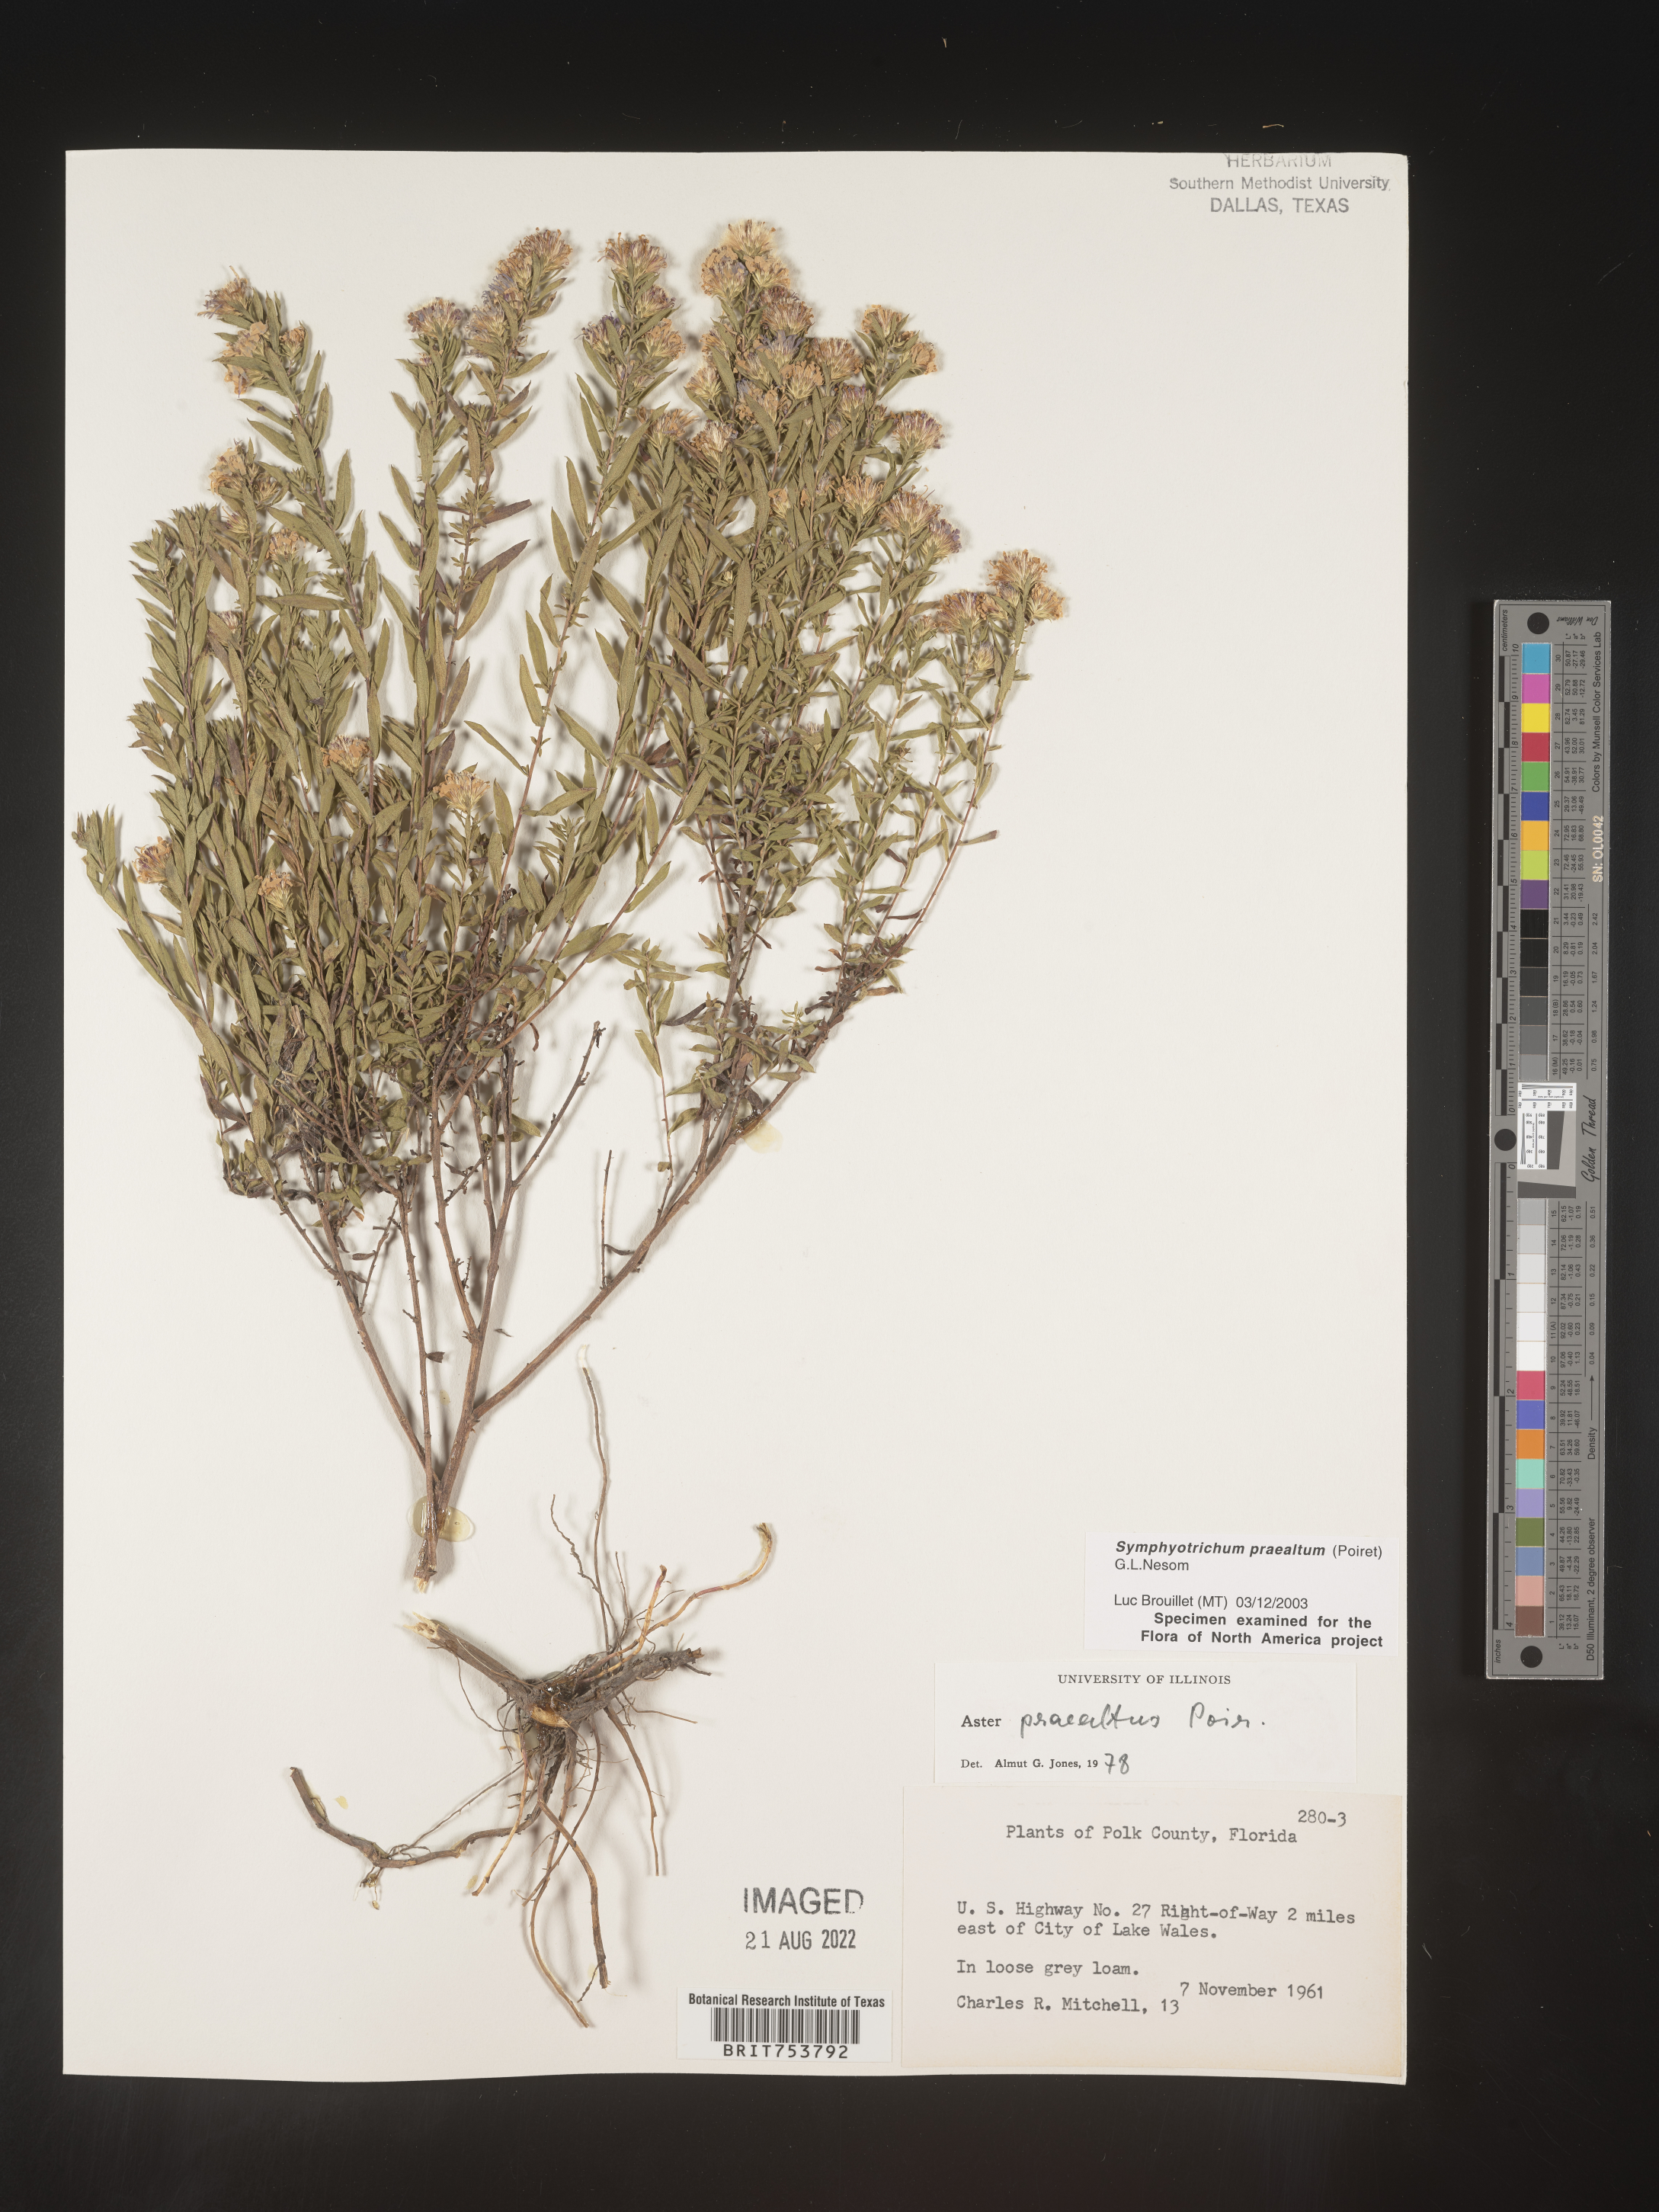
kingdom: Plantae
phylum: Tracheophyta
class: Magnoliopsida
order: Asterales
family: Asteraceae
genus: Symphyotrichum
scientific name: Symphyotrichum praealtum
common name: Willow aster
